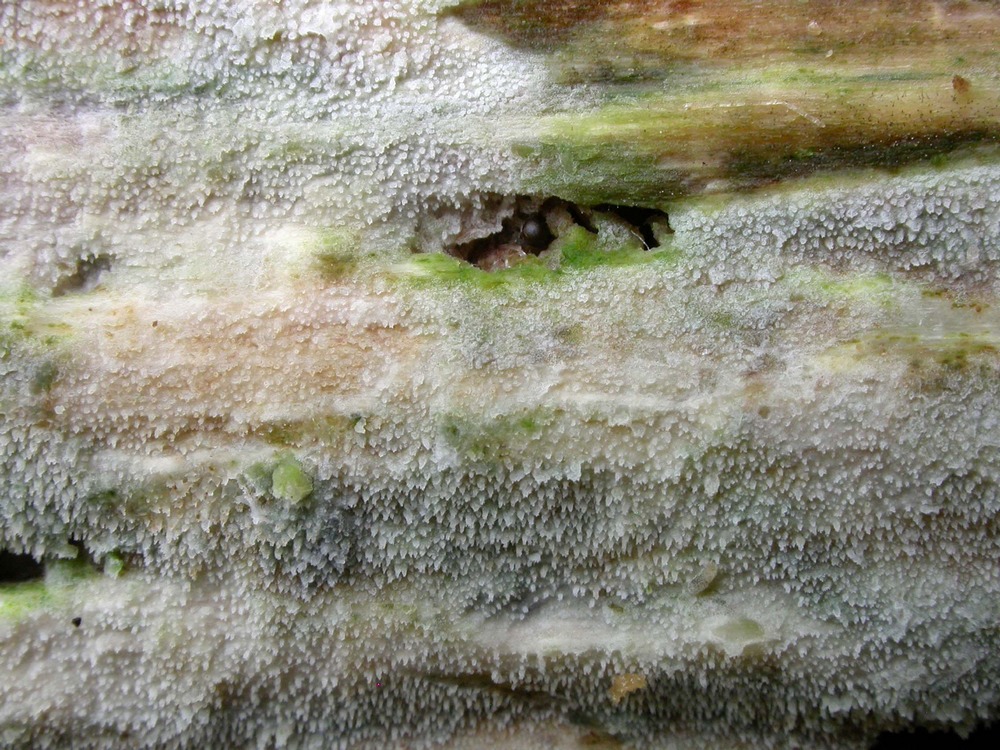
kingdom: Fungi
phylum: Basidiomycota
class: Agaricomycetes
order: Hymenochaetales
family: Rickenellaceae
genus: Resinicium
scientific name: Resinicium bicolor
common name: almindelig vokstand
